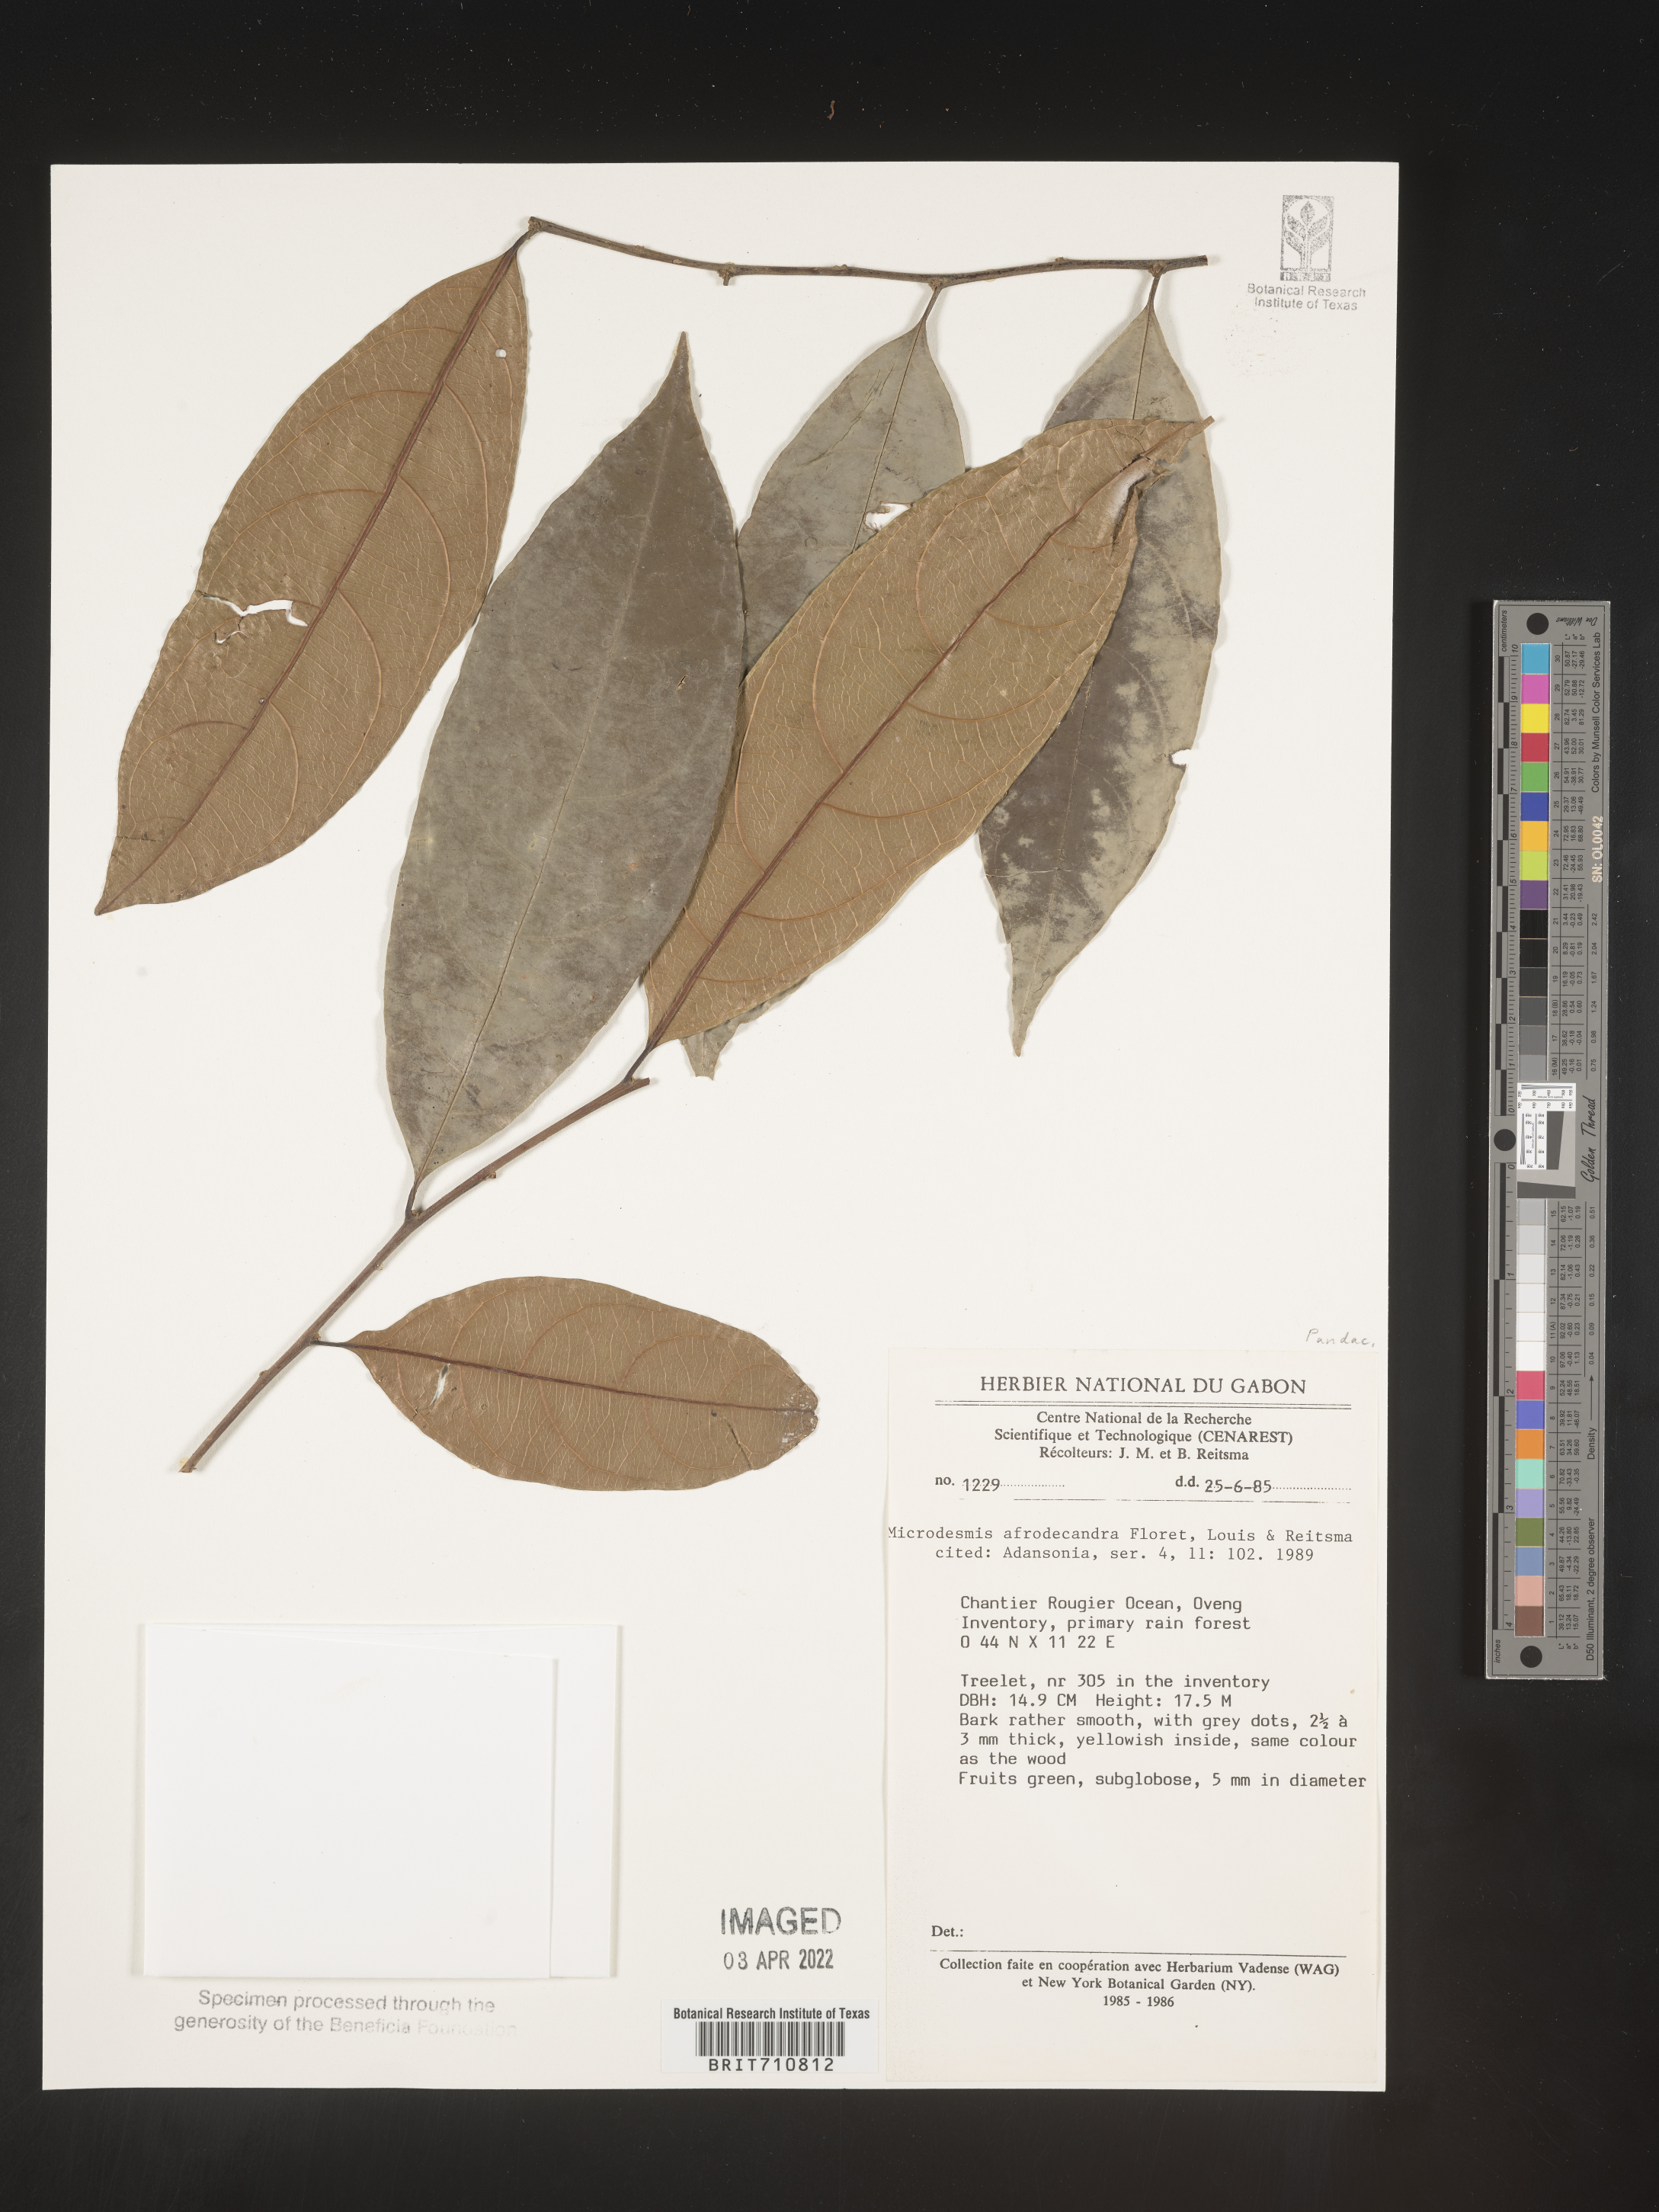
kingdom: Plantae
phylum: Tracheophyta
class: Magnoliopsida
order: Malpighiales
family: Pandaceae
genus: Microdesmis
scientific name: Microdesmis
